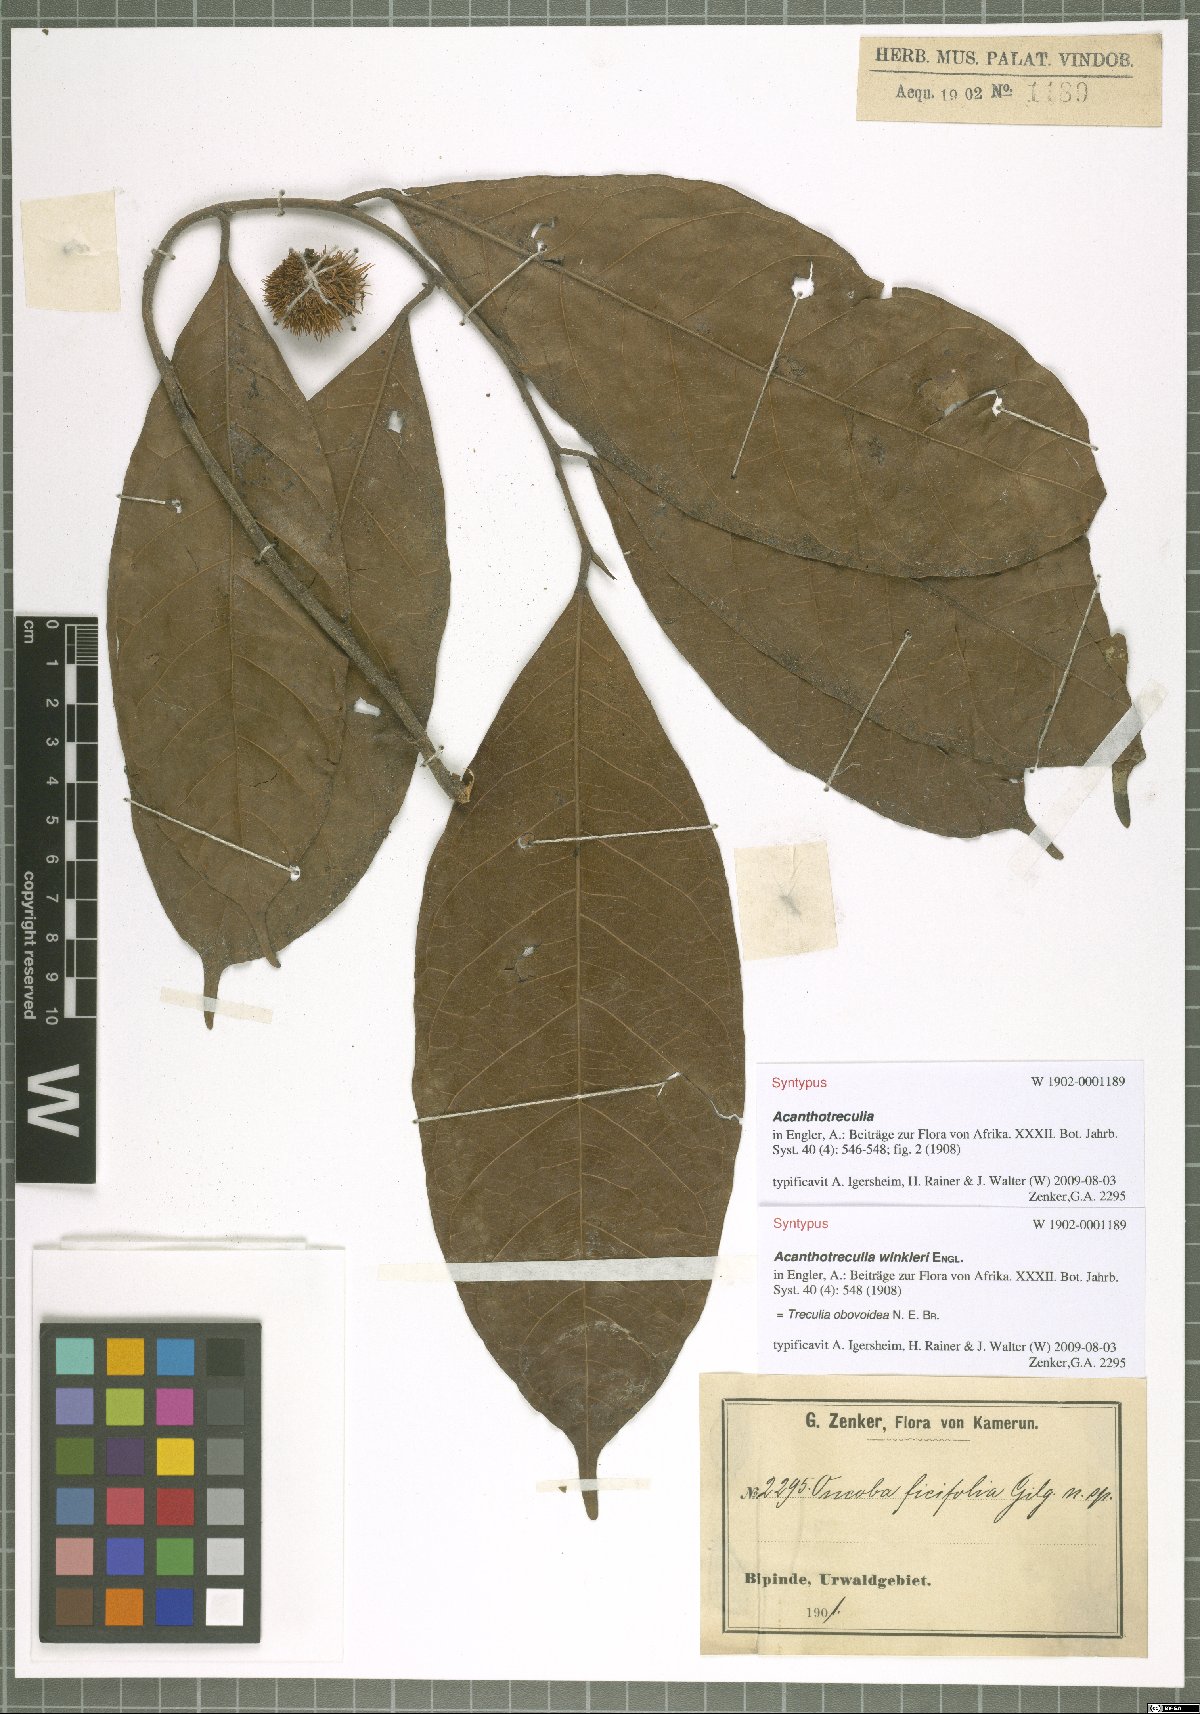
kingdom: Plantae
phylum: Tracheophyta
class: Magnoliopsida
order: Rosales
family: Moraceae
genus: Treculia
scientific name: Treculia obovoidea
